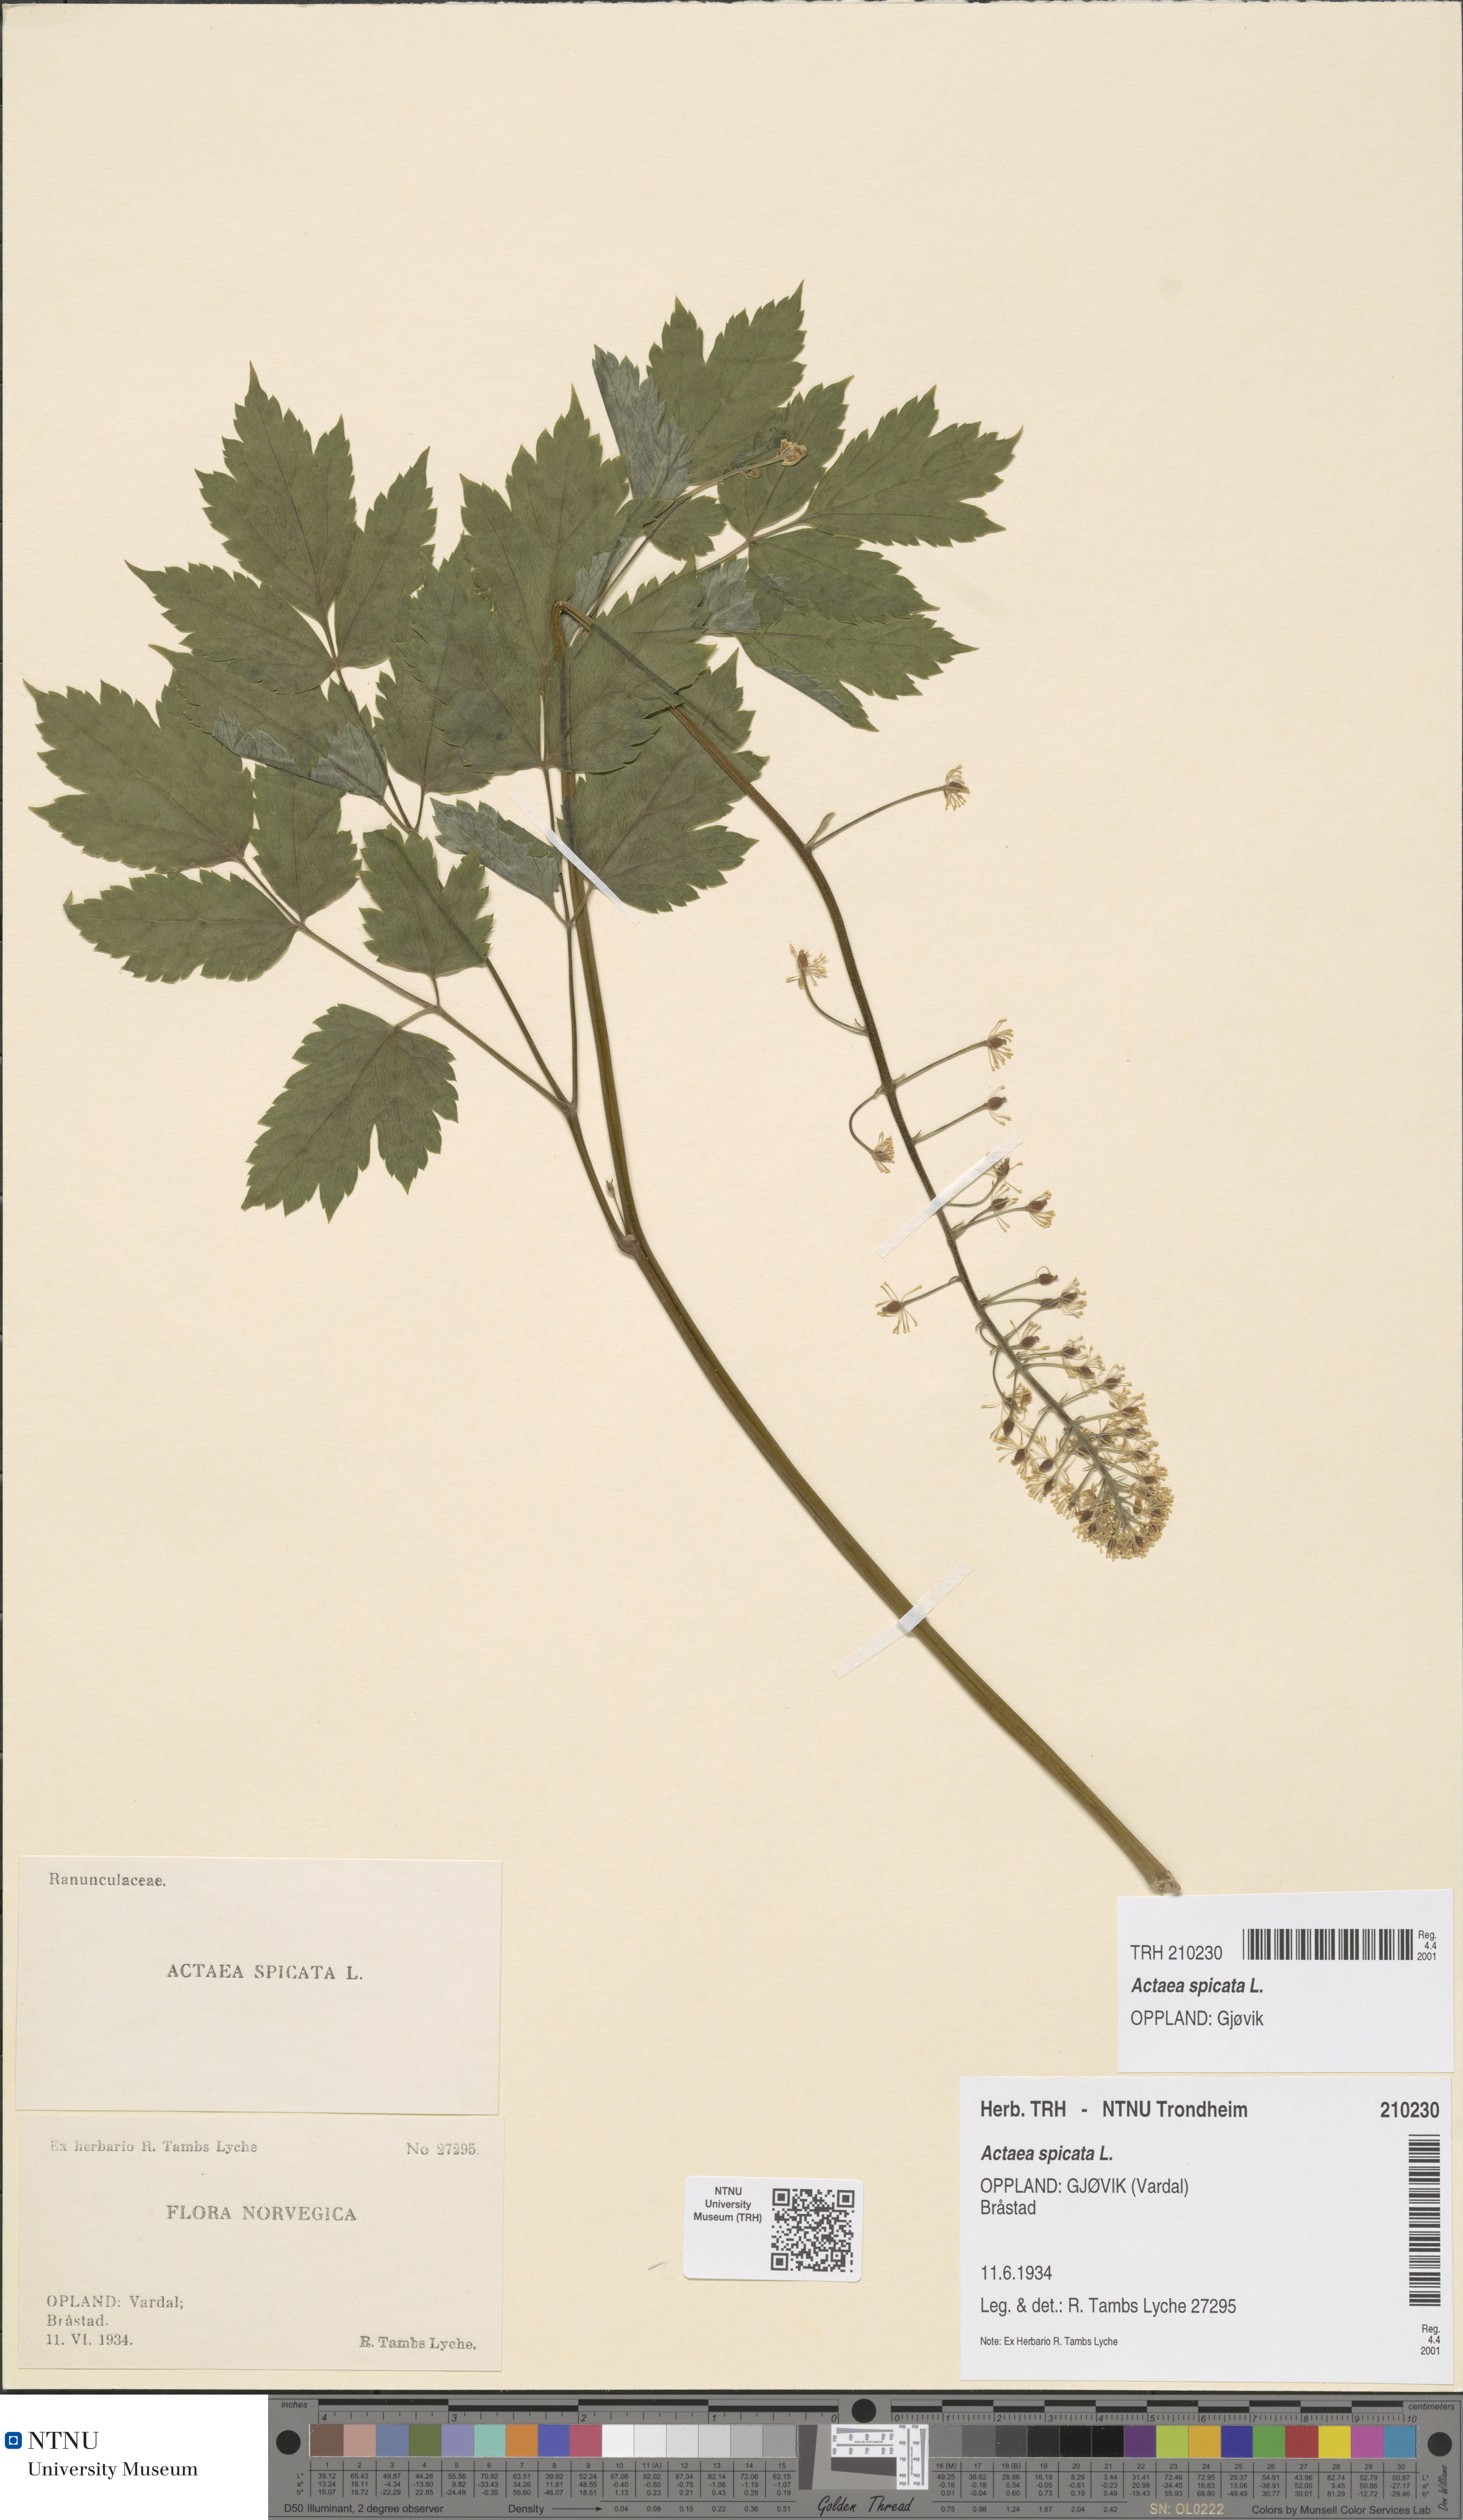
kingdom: Plantae
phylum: Tracheophyta
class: Magnoliopsida
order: Ranunculales
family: Ranunculaceae
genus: Actaea
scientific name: Actaea spicata
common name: Baneberry
